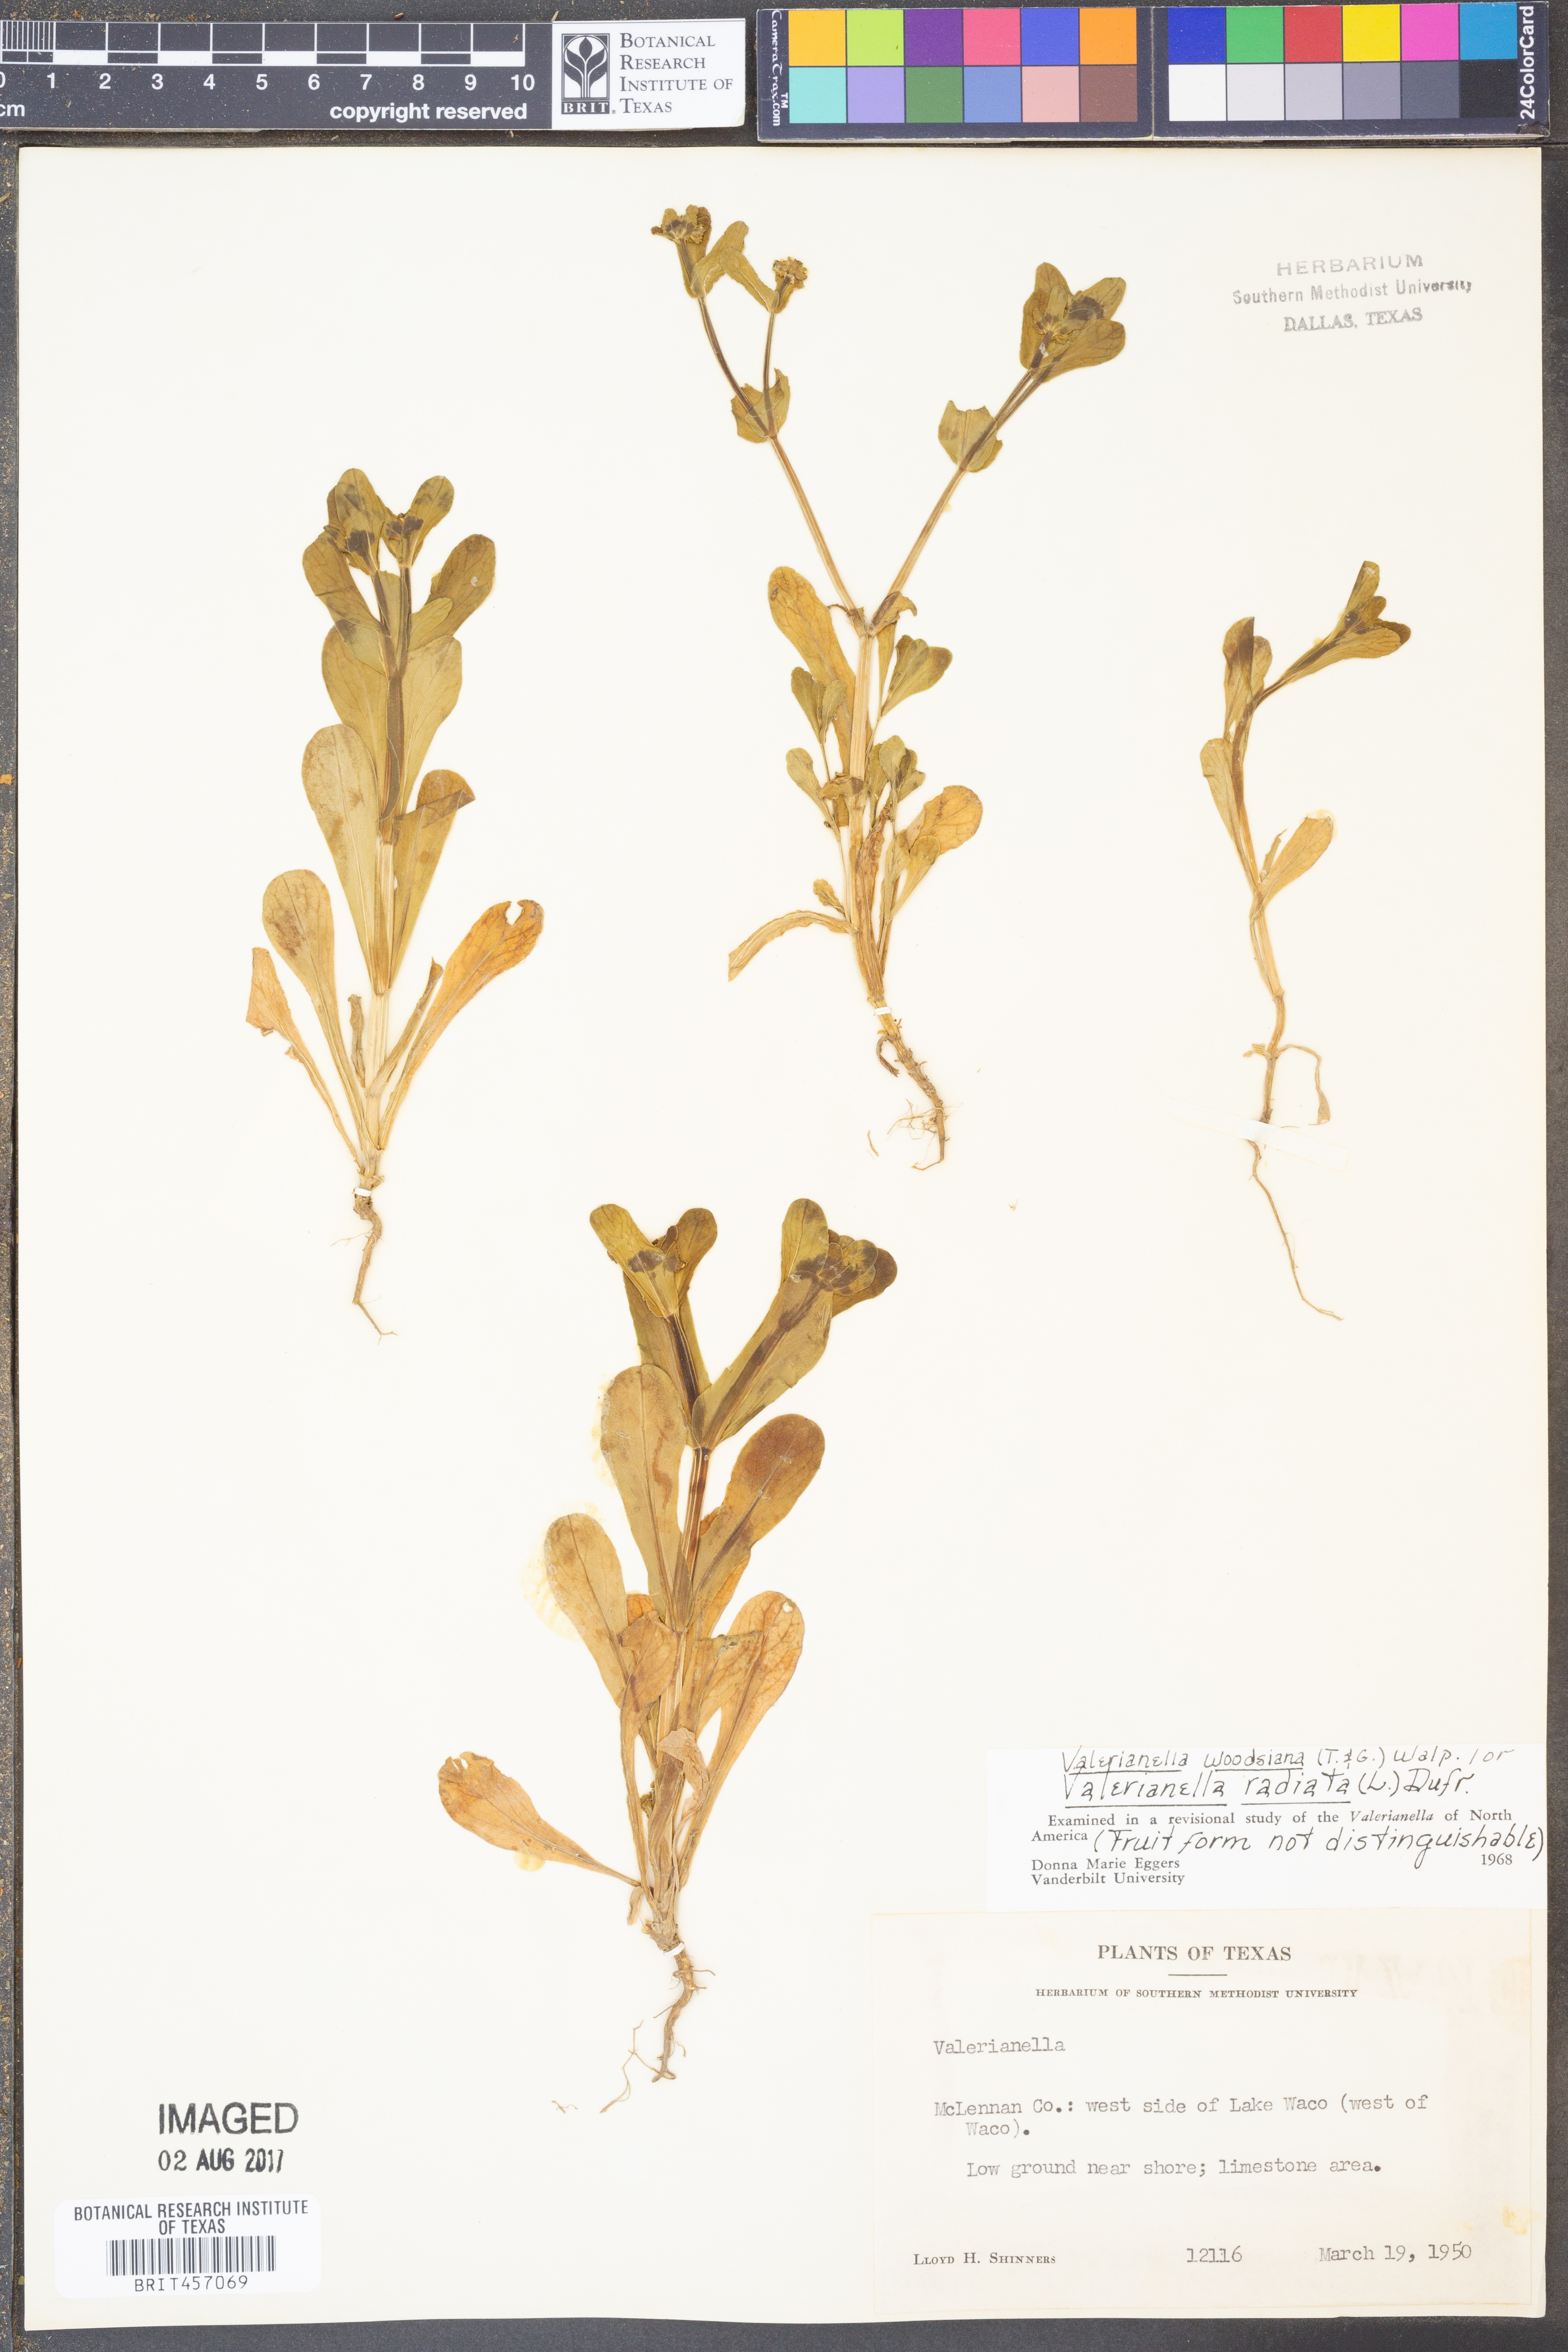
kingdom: Plantae
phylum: Tracheophyta
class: Magnoliopsida
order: Dipsacales
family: Caprifoliaceae
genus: Valerianella
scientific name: Valerianella radiata
